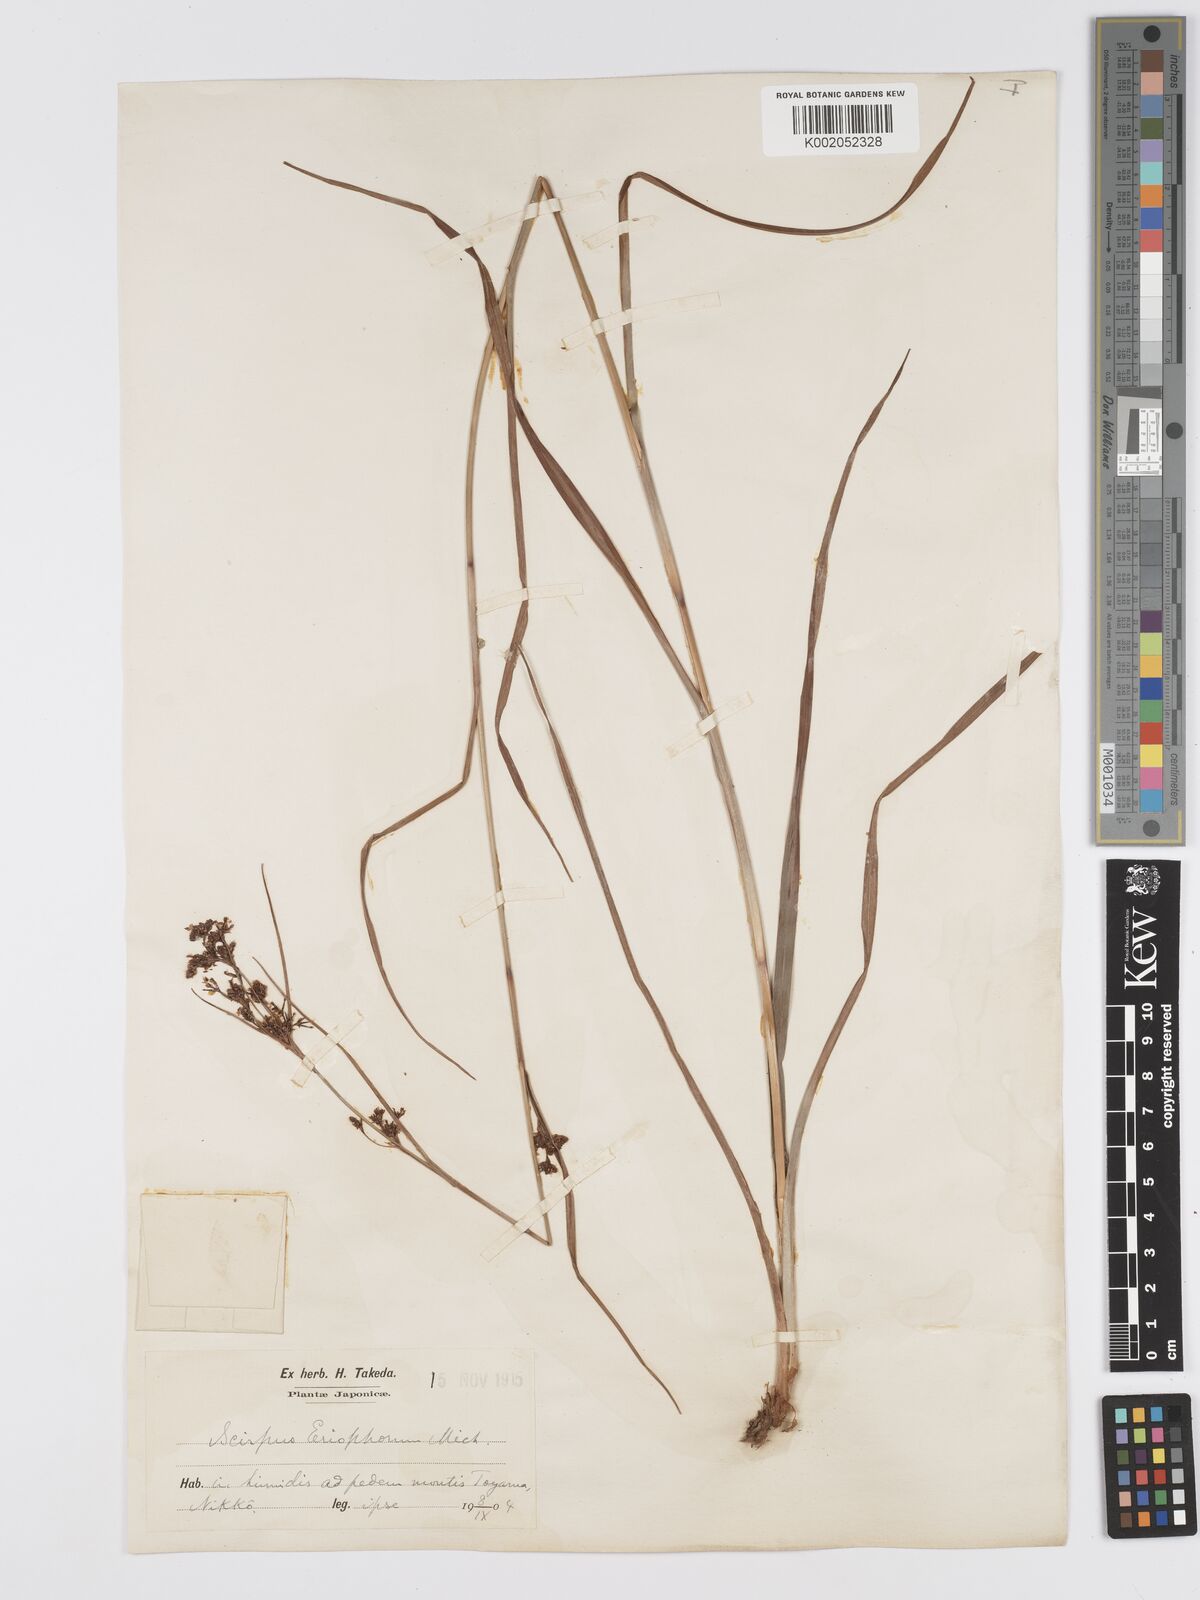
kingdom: Plantae
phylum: Tracheophyta
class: Liliopsida
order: Poales
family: Cyperaceae
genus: Scirpus
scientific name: Scirpus cyperinus
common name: Black-sheathed bulrush
